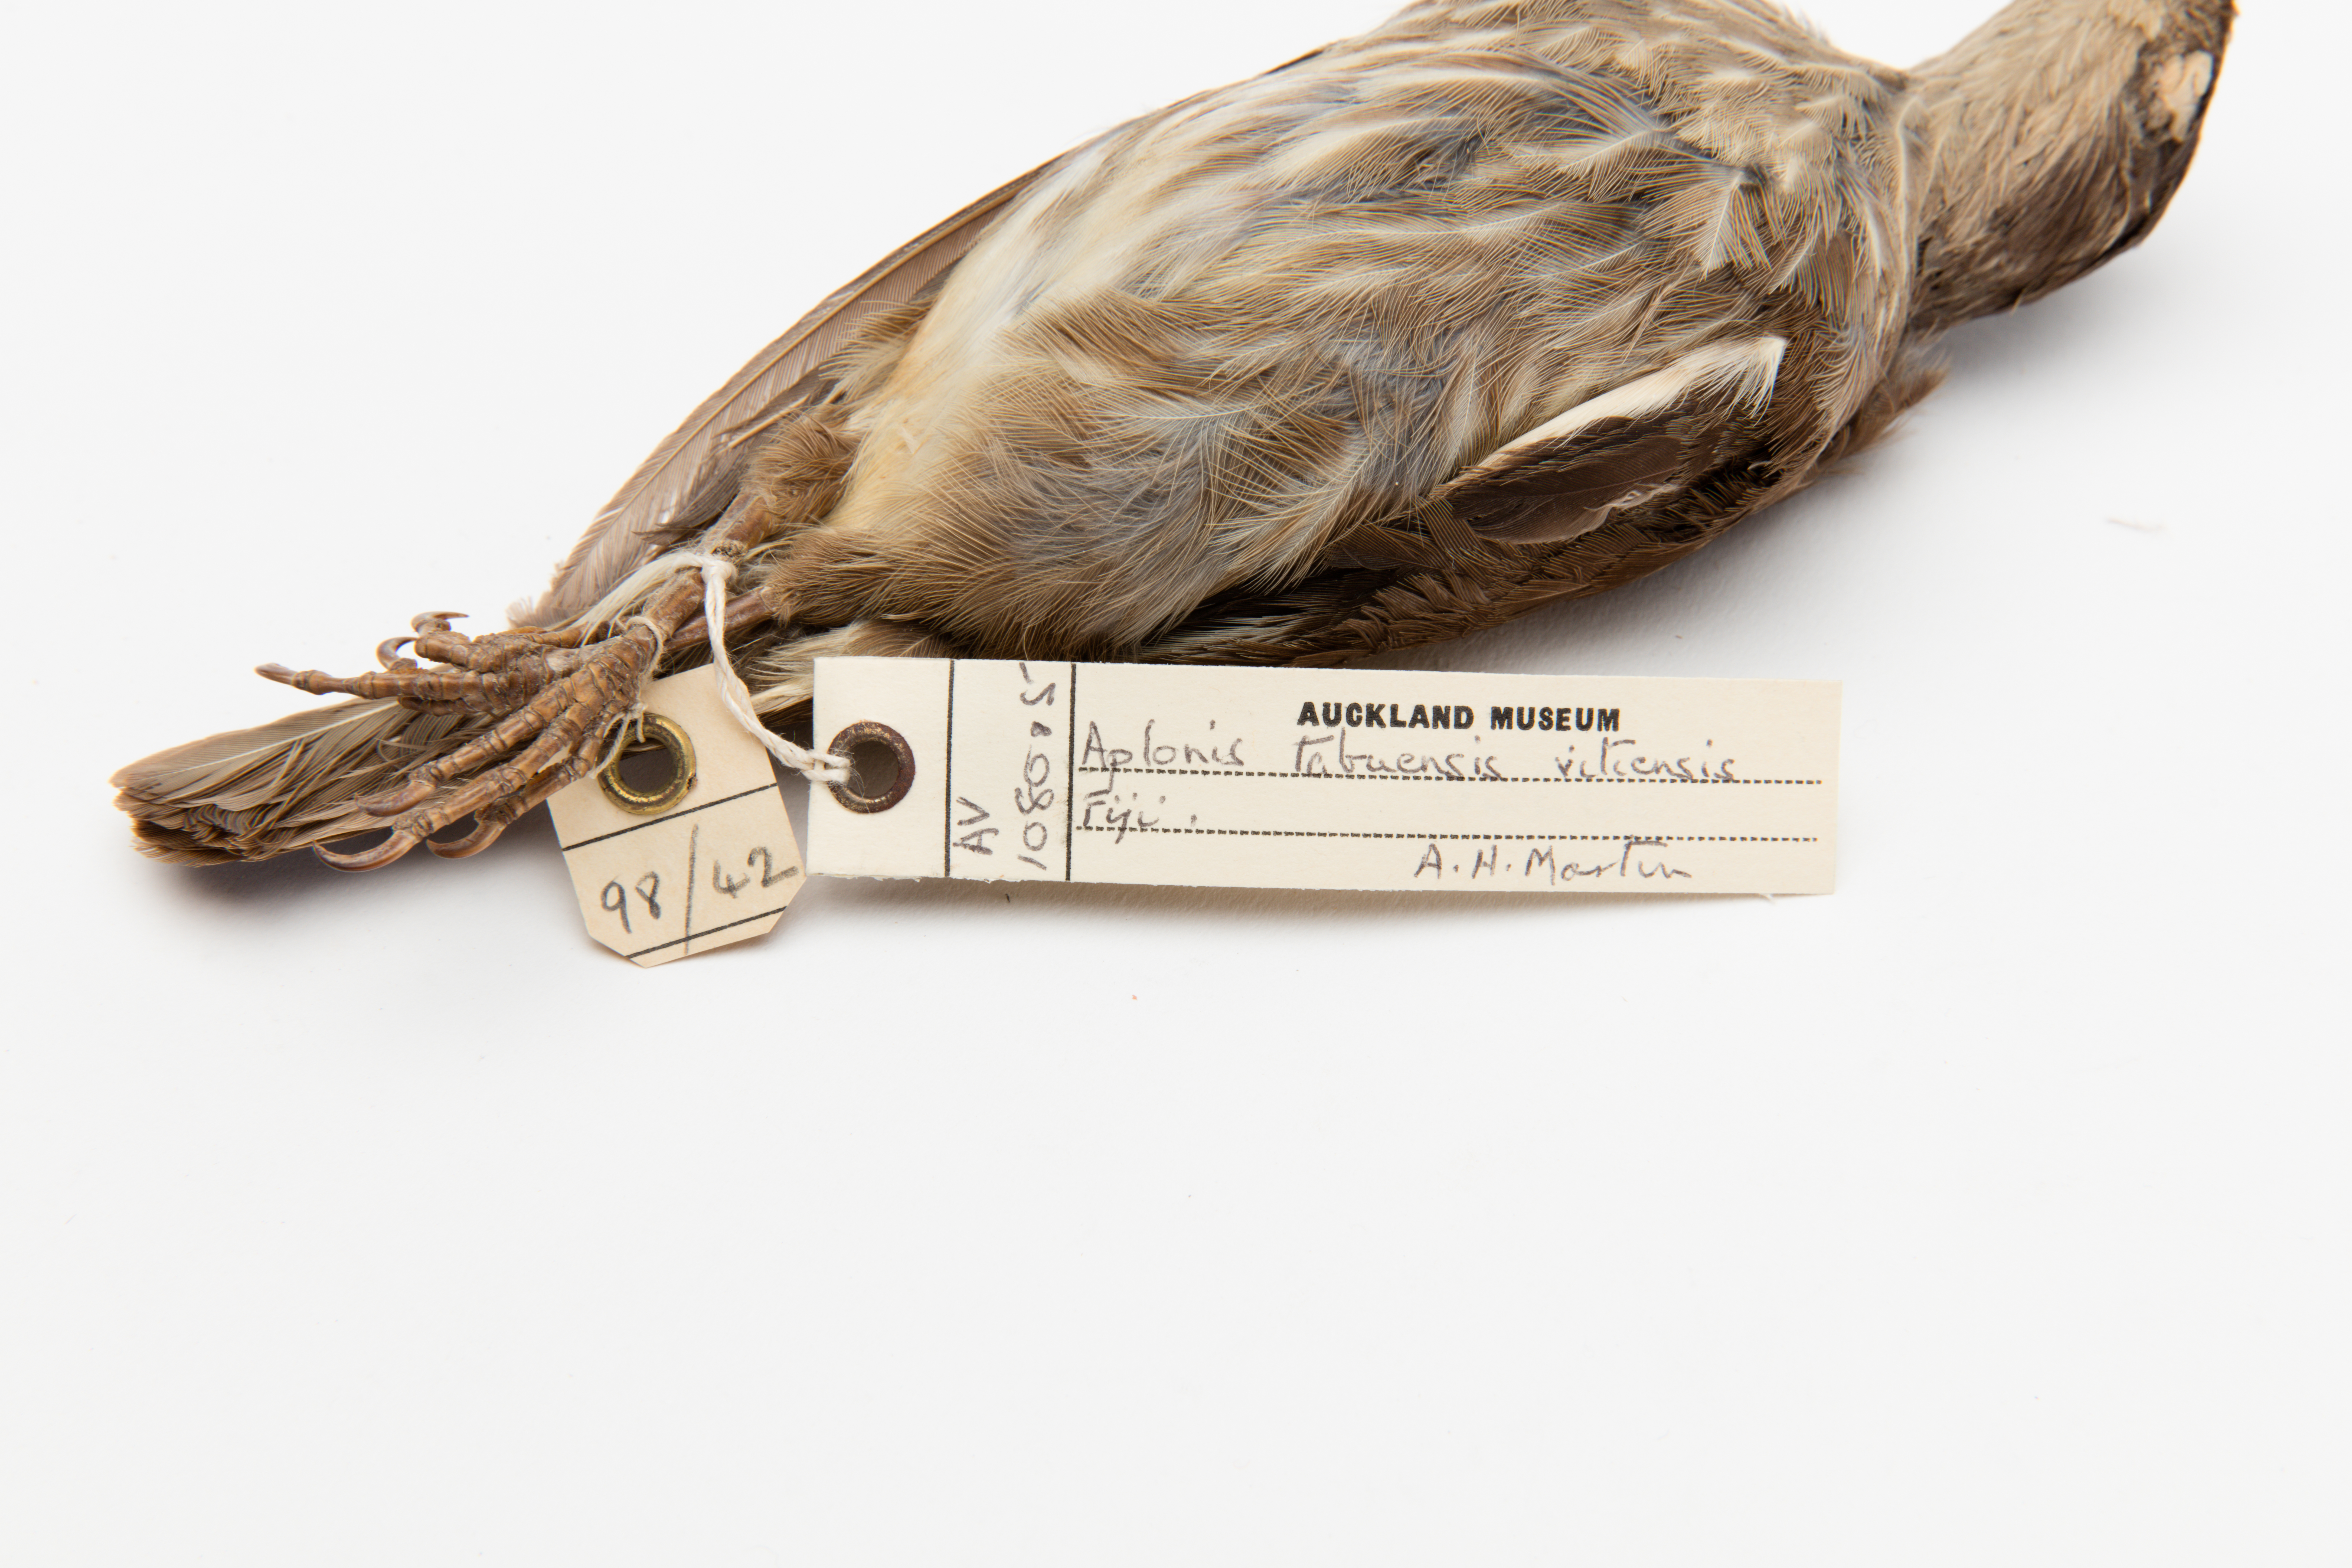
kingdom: Animalia
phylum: Chordata
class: Aves
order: Passeriformes
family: Sturnidae
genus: Aplonis
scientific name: Aplonis tabuensis
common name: Polynesian starling
